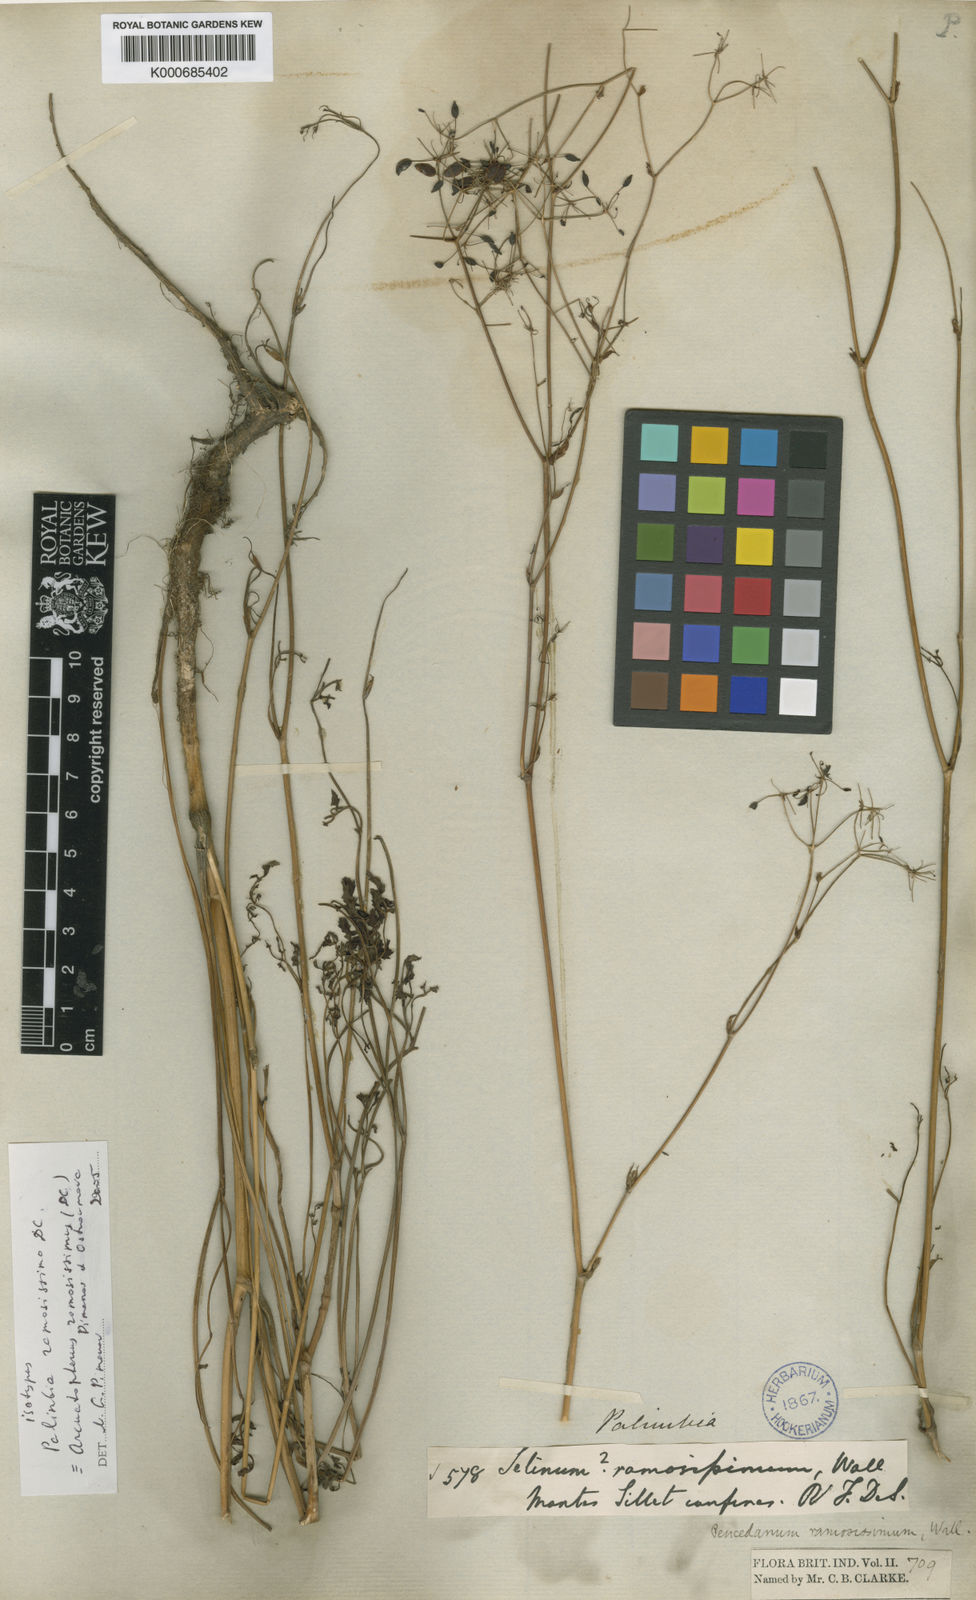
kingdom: Plantae
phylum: Tracheophyta
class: Magnoliopsida
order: Apiales
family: Apiaceae
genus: Peucedanum
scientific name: Peucedanum
